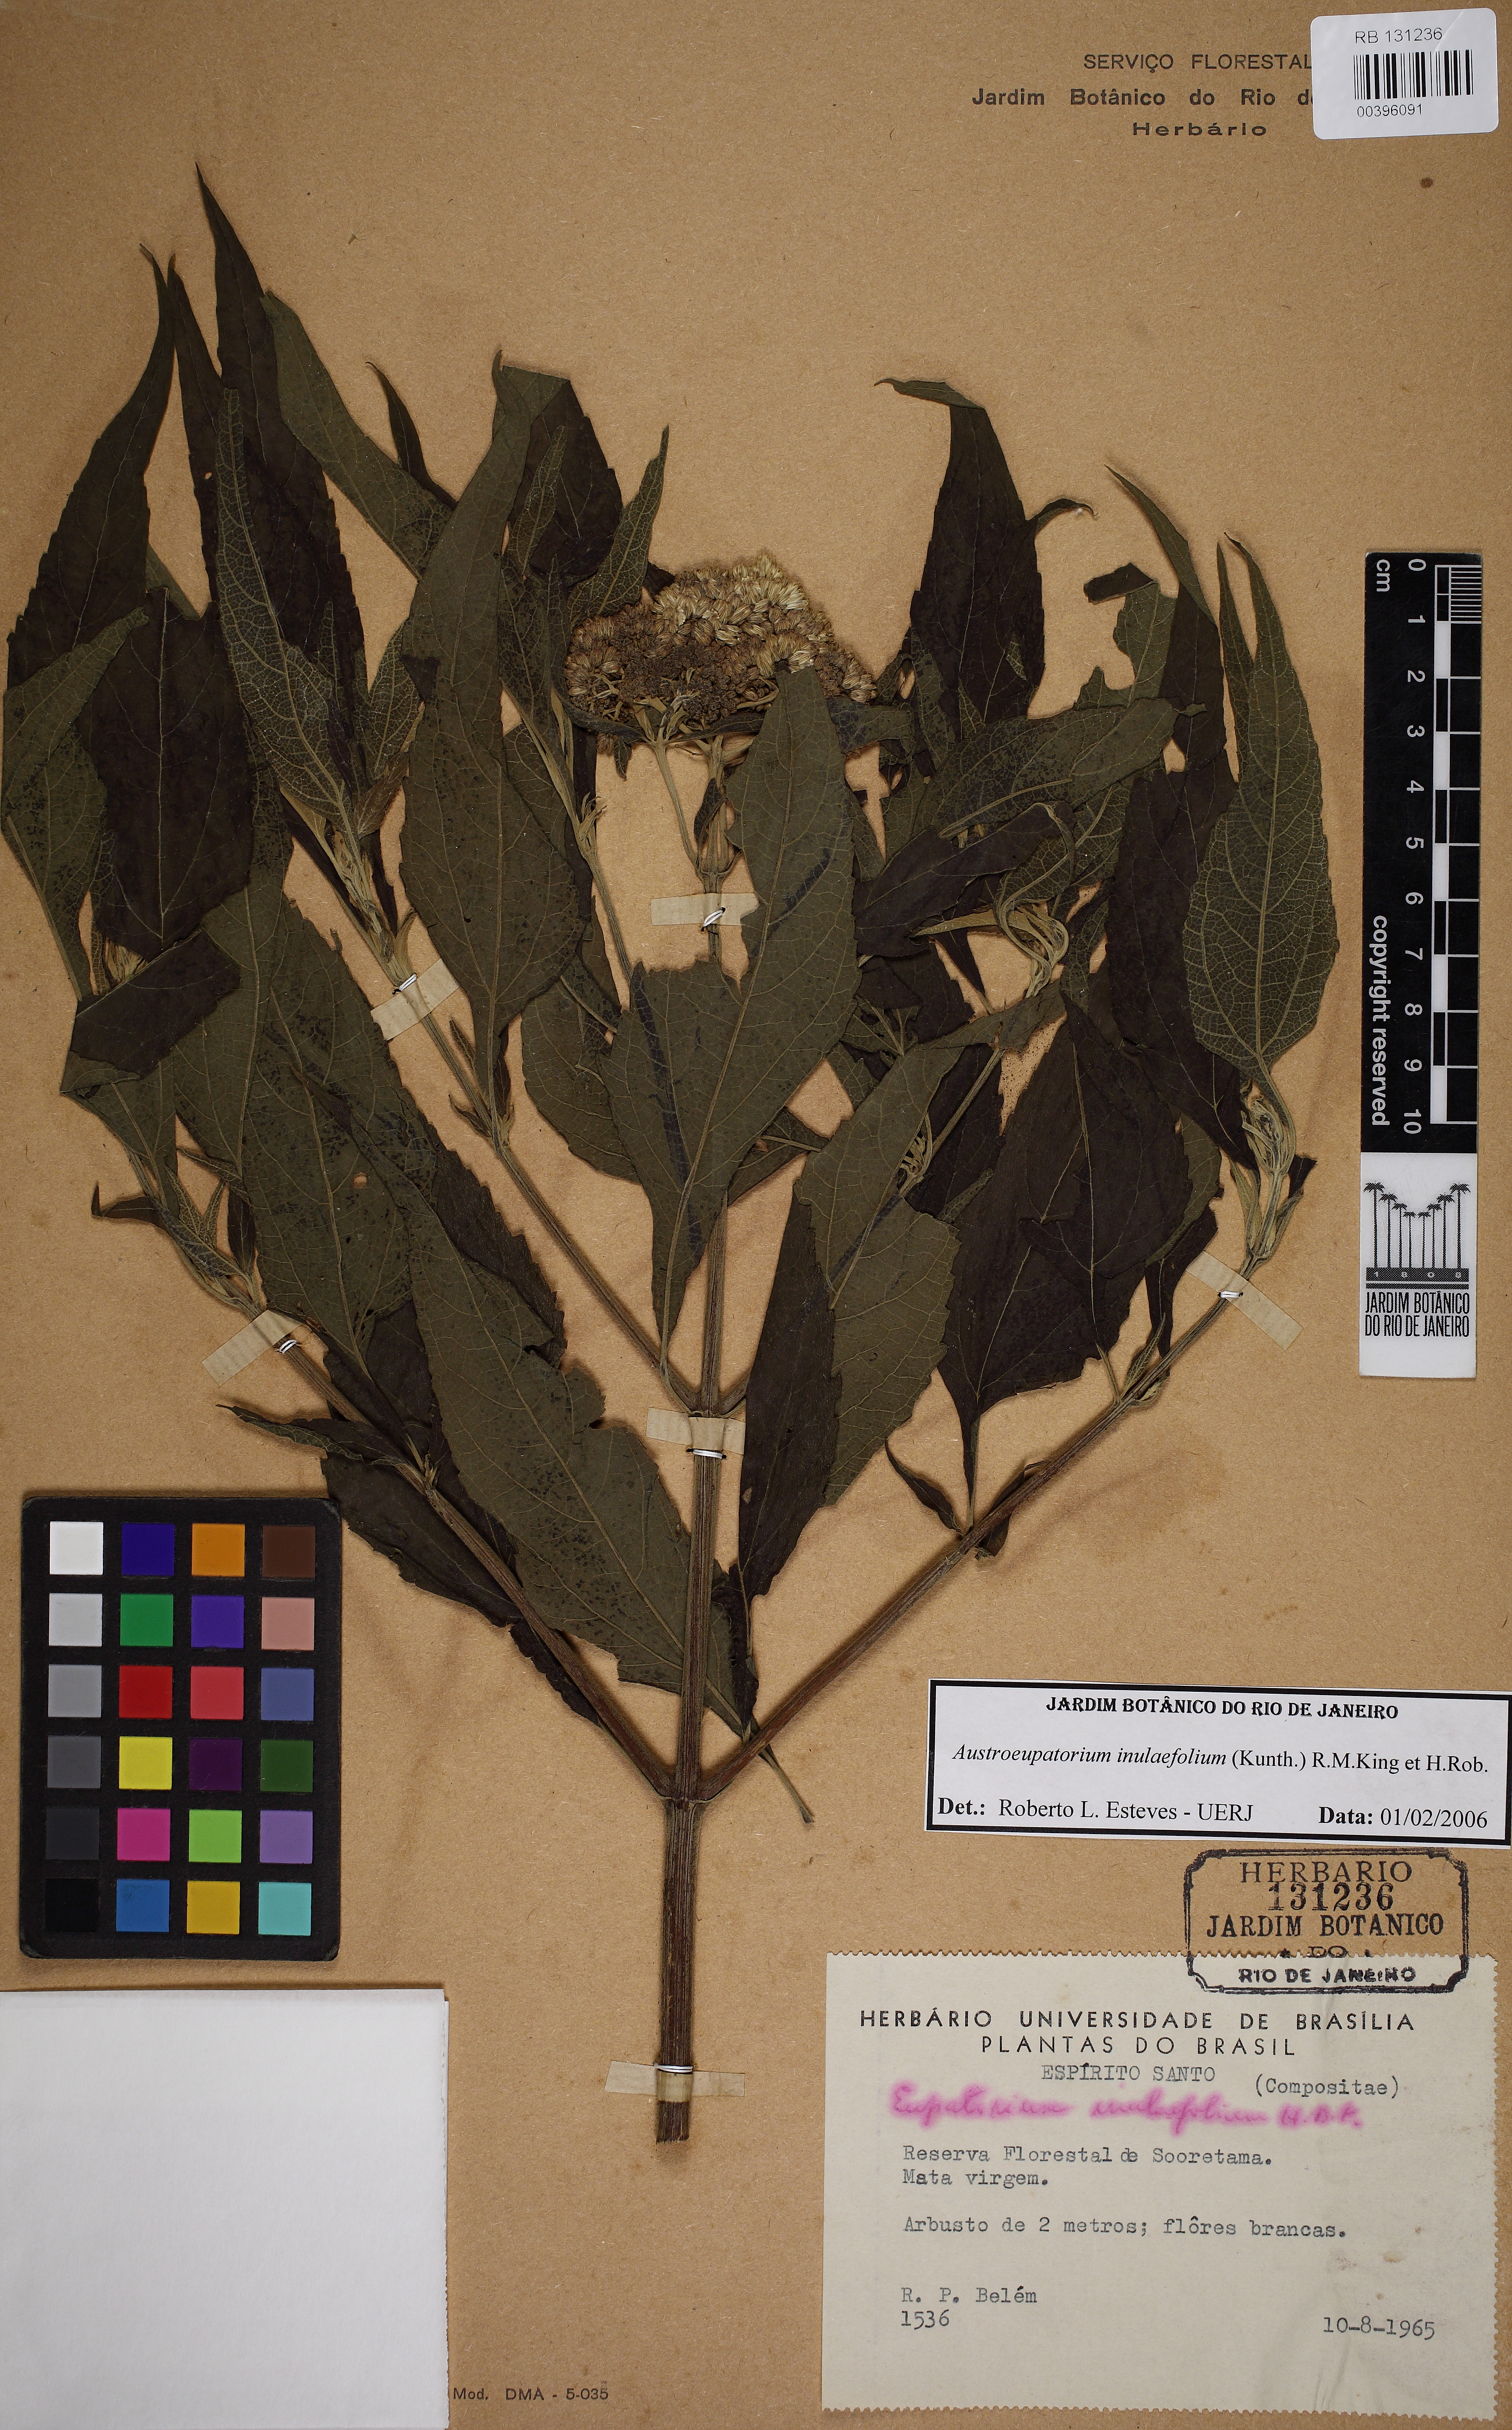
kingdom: Plantae
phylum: Tracheophyta
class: Magnoliopsida
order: Asterales
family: Asteraceae
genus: Austroeupatorium
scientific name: Austroeupatorium inulaefolium
